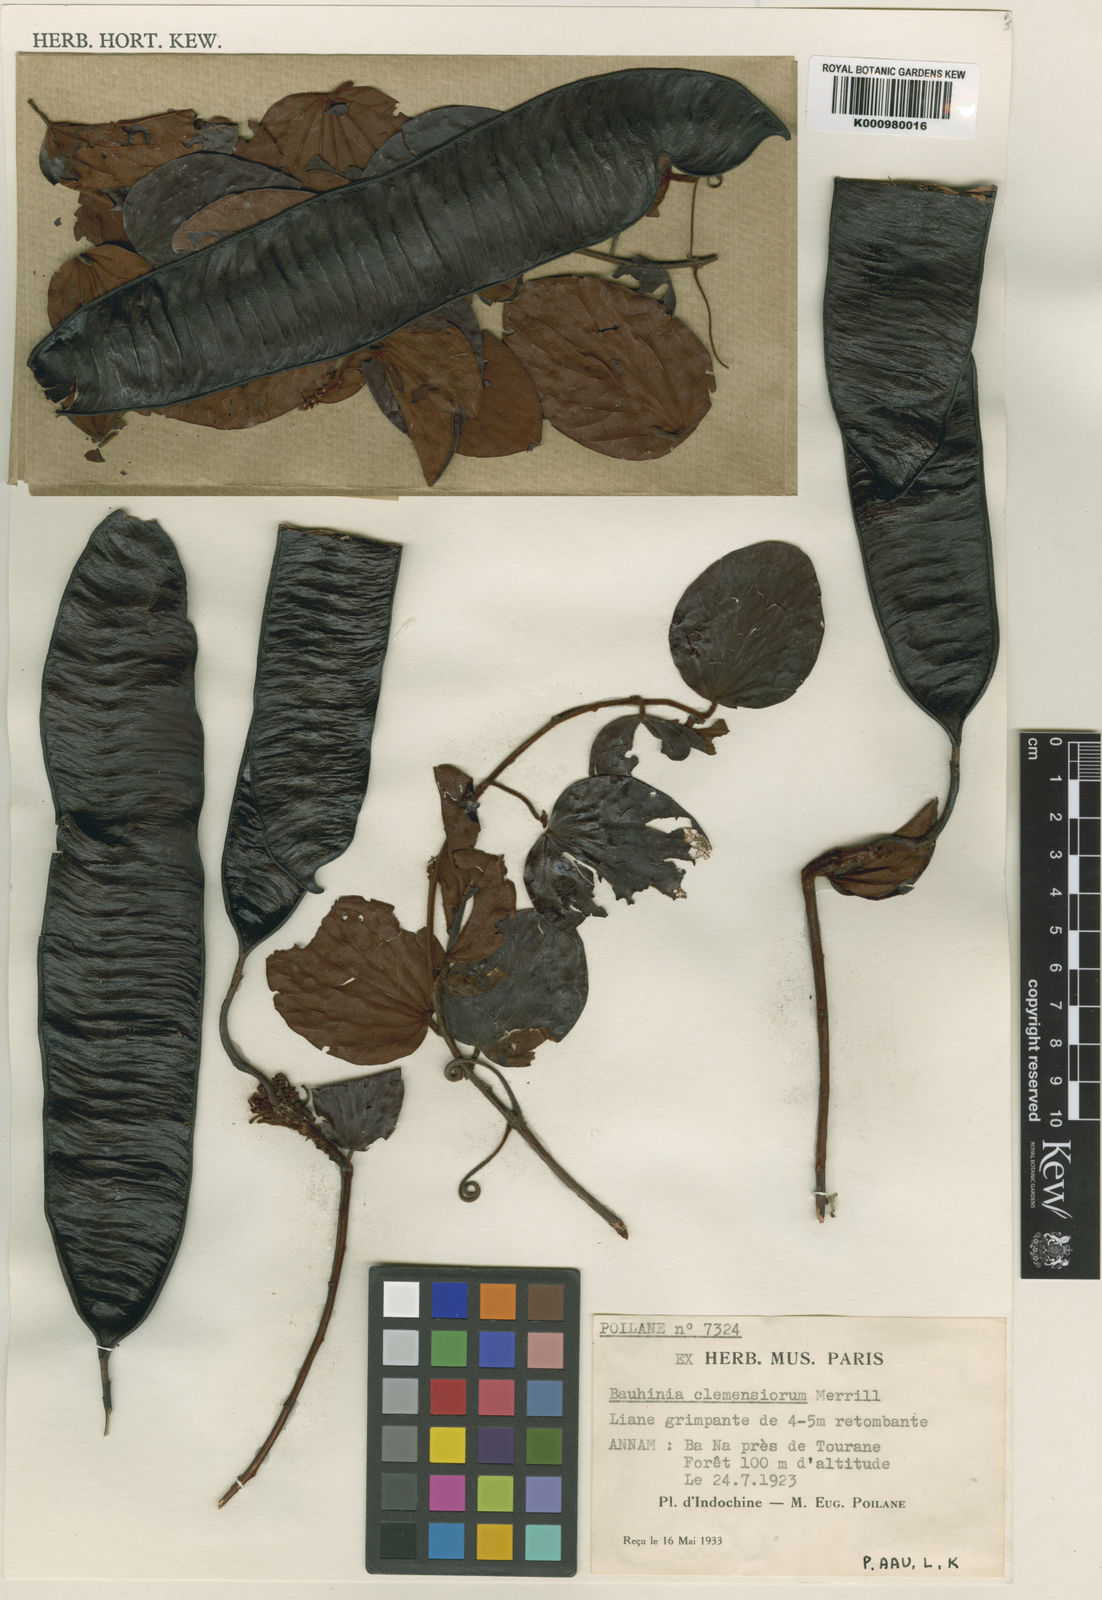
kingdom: Plantae
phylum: Tracheophyta
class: Magnoliopsida
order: Fabales
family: Fabaceae
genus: Cheniella
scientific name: Cheniella clemensiorum
